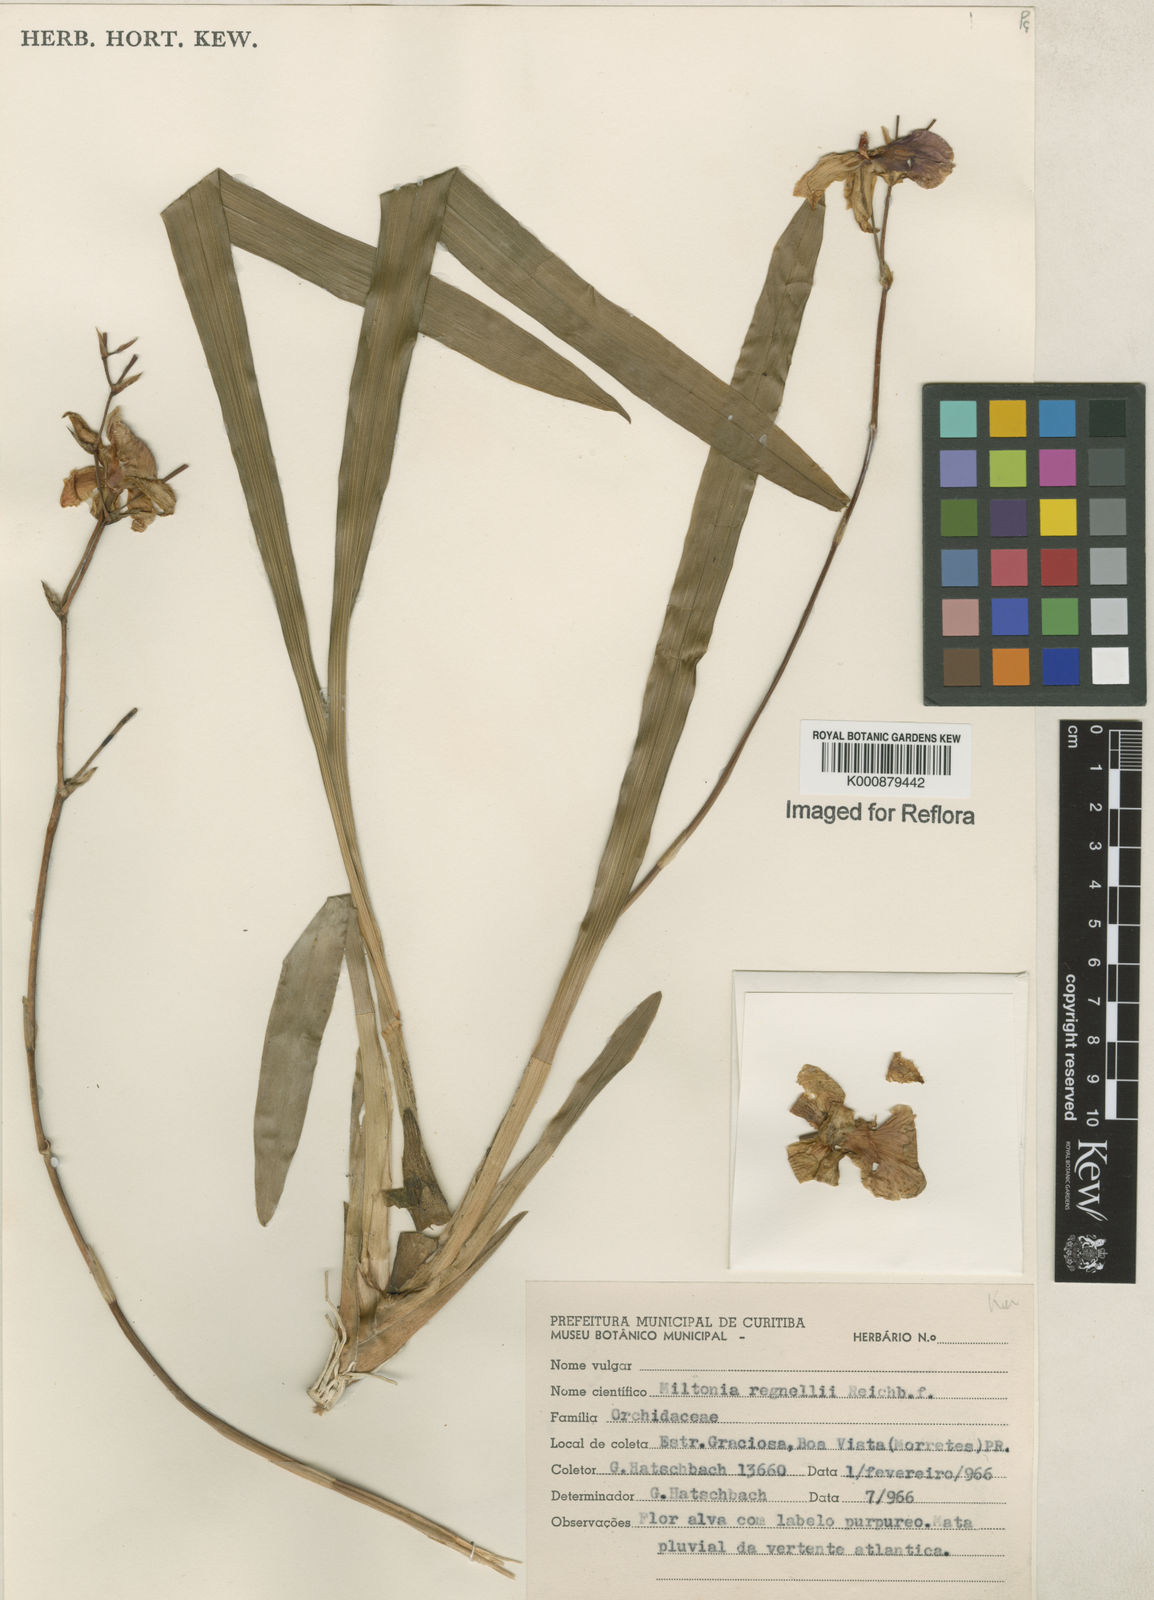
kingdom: Plantae
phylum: Tracheophyta
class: Liliopsida
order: Asparagales
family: Orchidaceae
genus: Miltonia
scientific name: Miltonia regnellii
